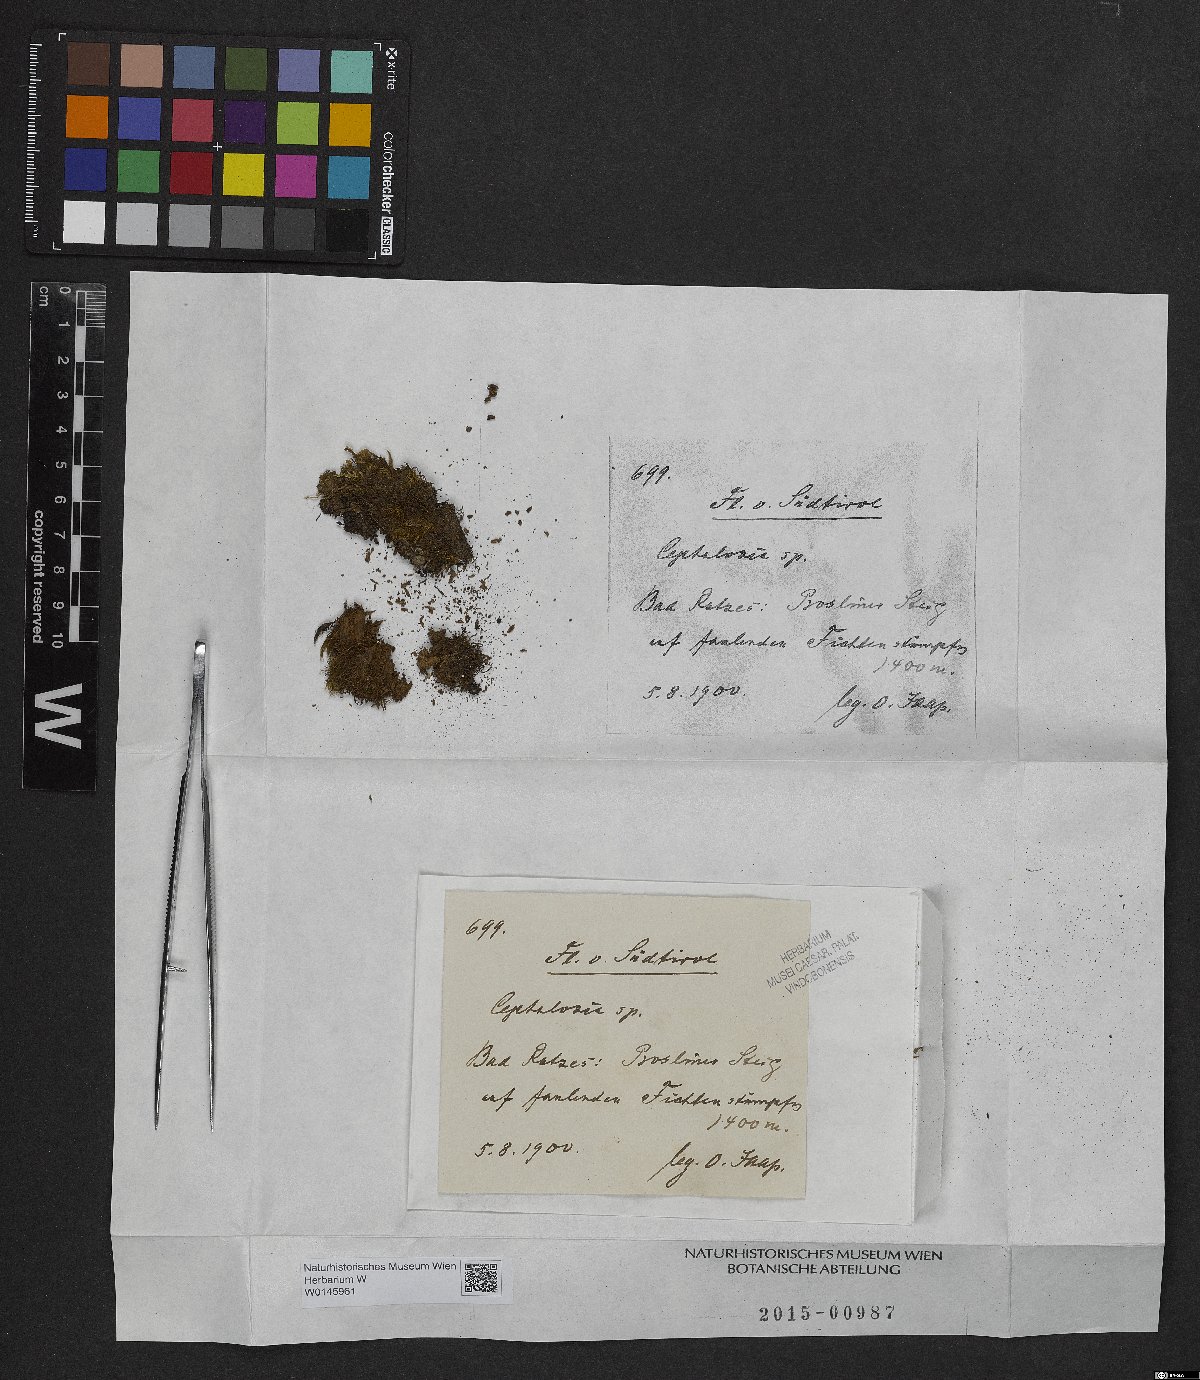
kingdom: Plantae
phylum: Marchantiophyta
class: Jungermanniopsida
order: Jungermanniales
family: Cephaloziaceae
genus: Cephalozia
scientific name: Cephalozia
